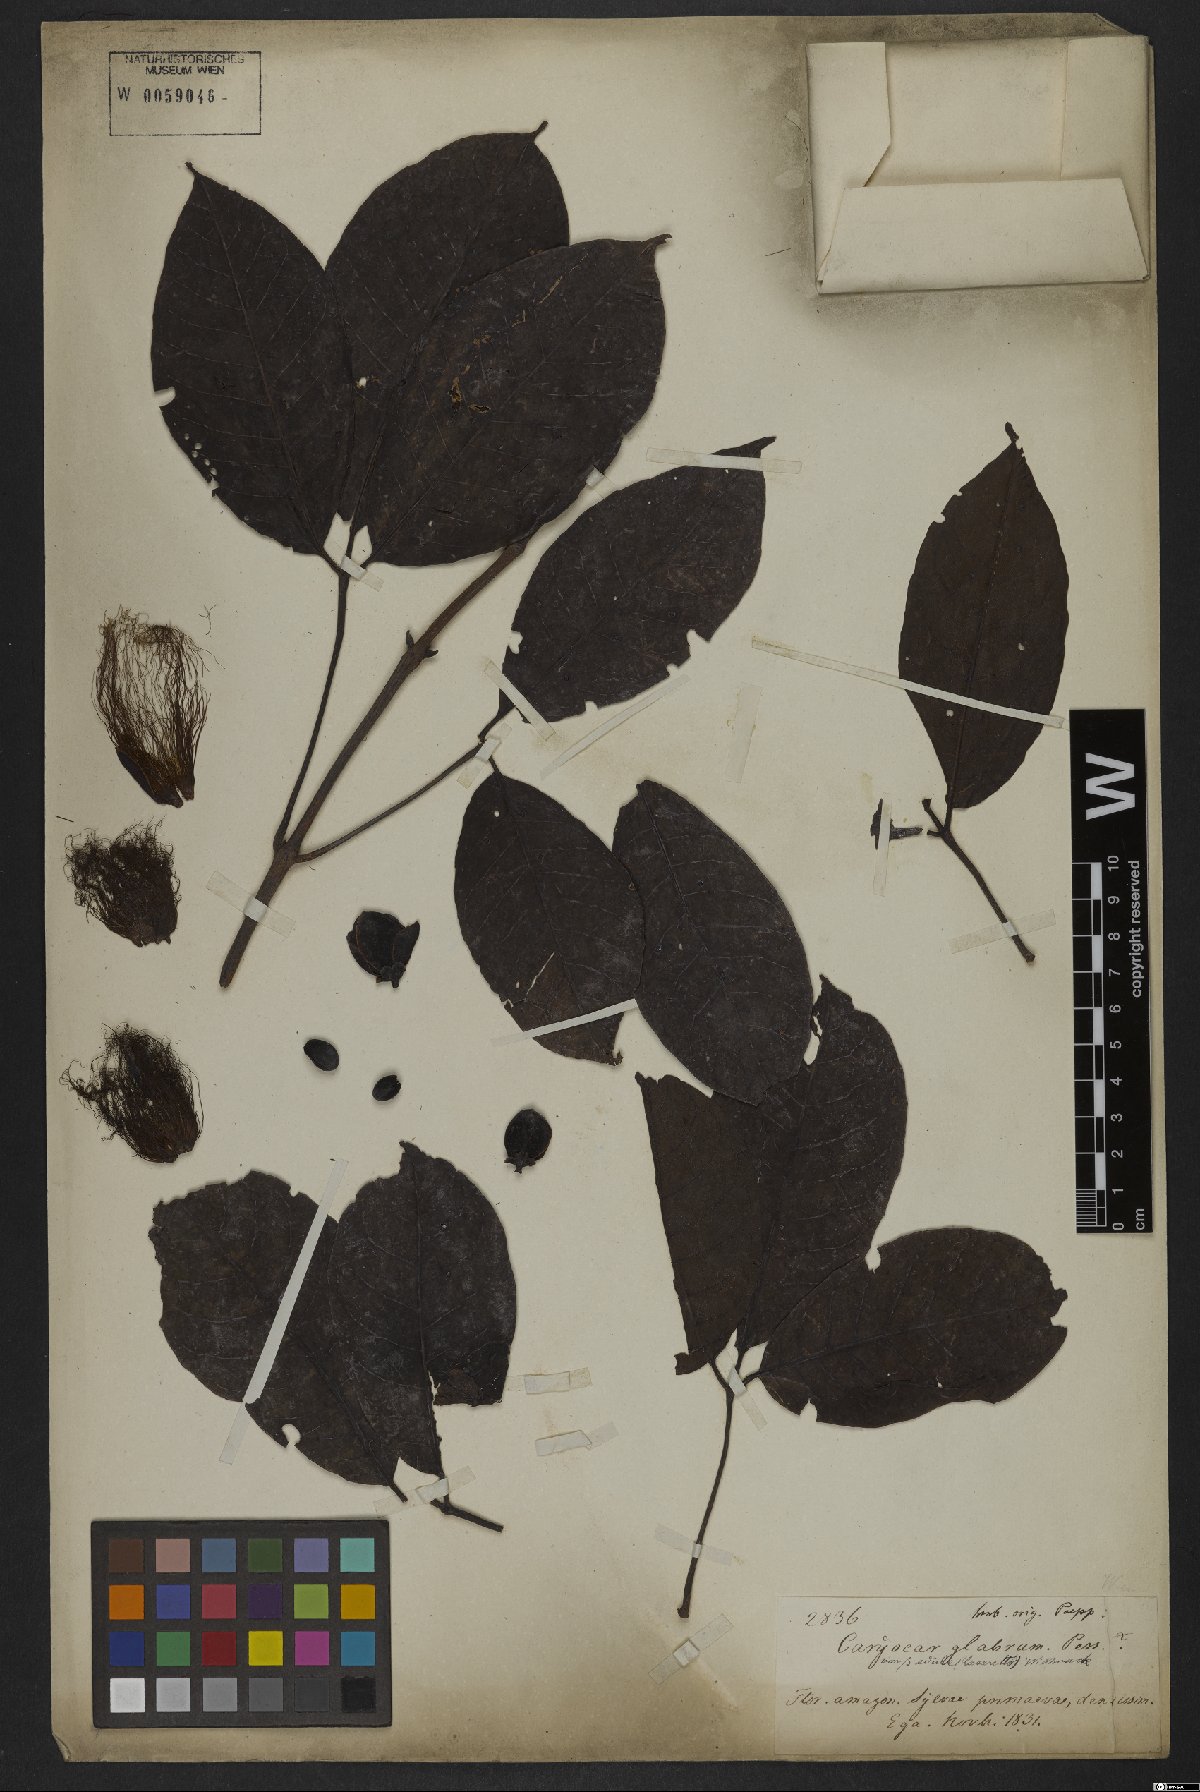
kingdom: Plantae
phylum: Tracheophyta
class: Magnoliopsida
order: Malpighiales
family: Caryocaraceae
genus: Caryocar
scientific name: Caryocar glabrum
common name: Bat's souari
